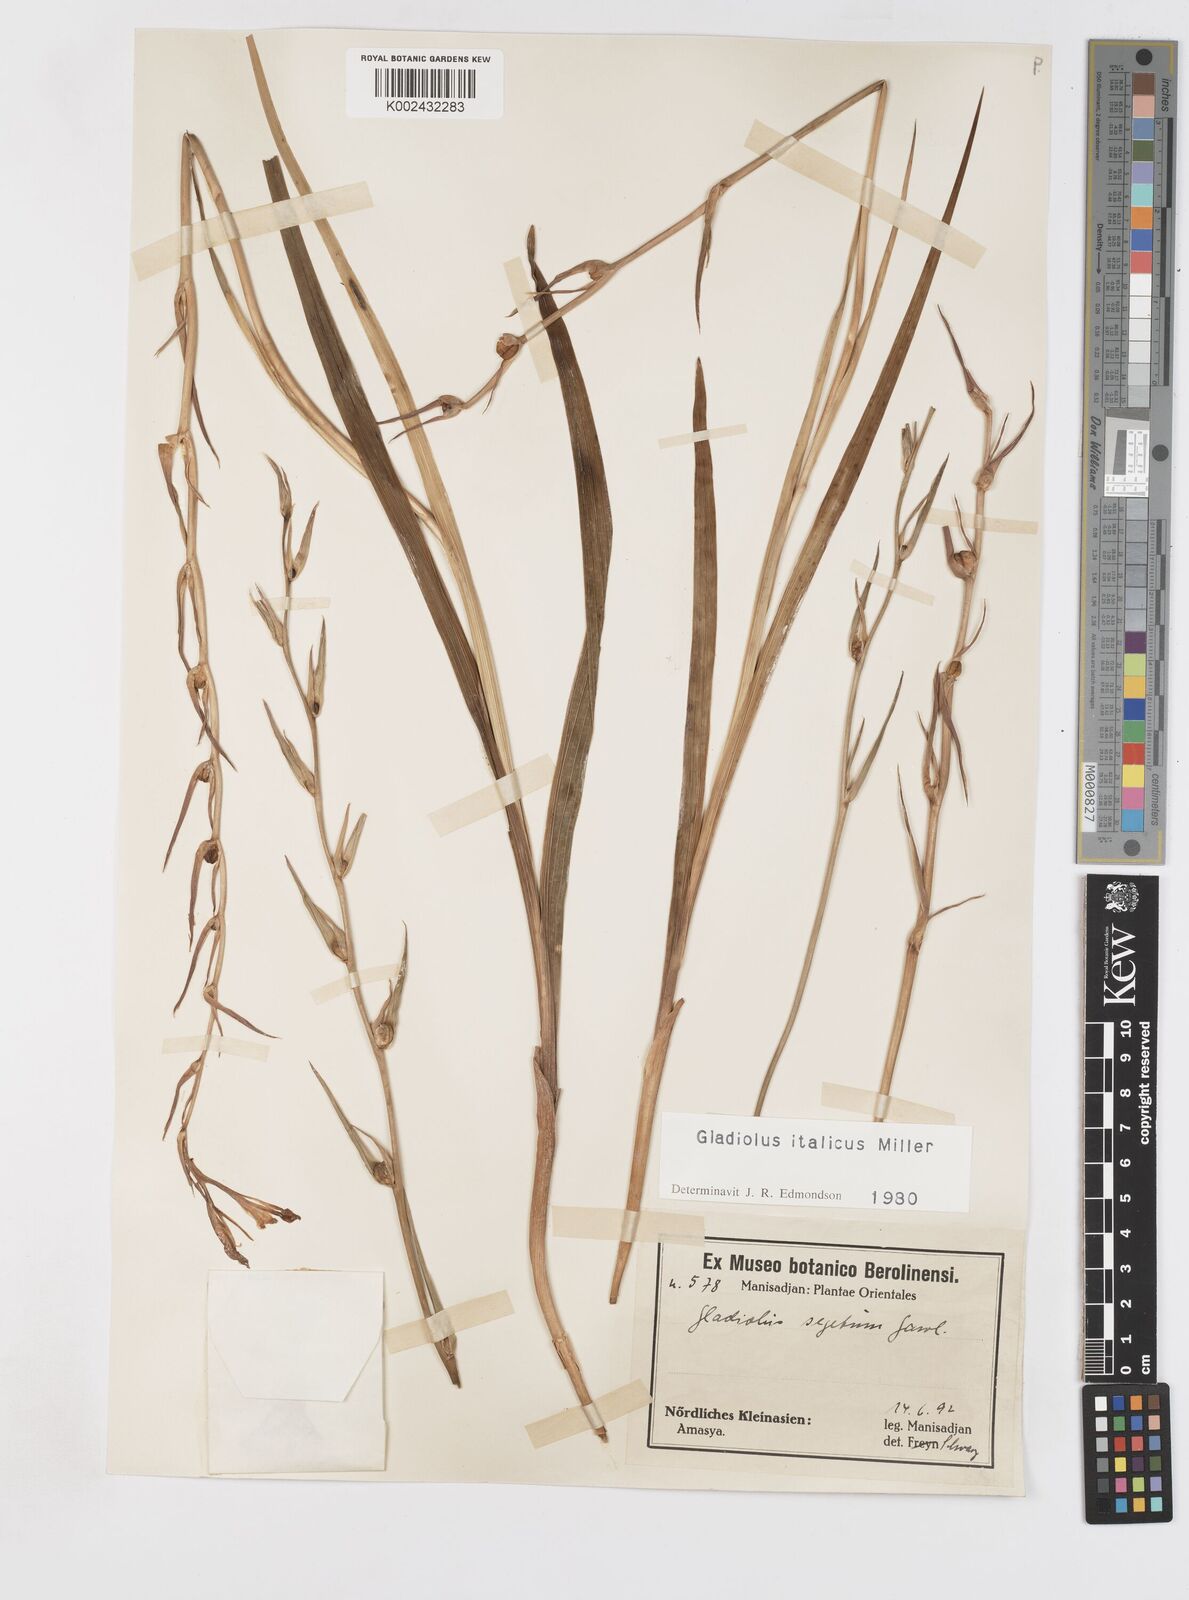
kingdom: Plantae
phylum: Tracheophyta
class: Liliopsida
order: Asparagales
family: Iridaceae
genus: Gladiolus
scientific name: Gladiolus italicus
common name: Field gladiolus
